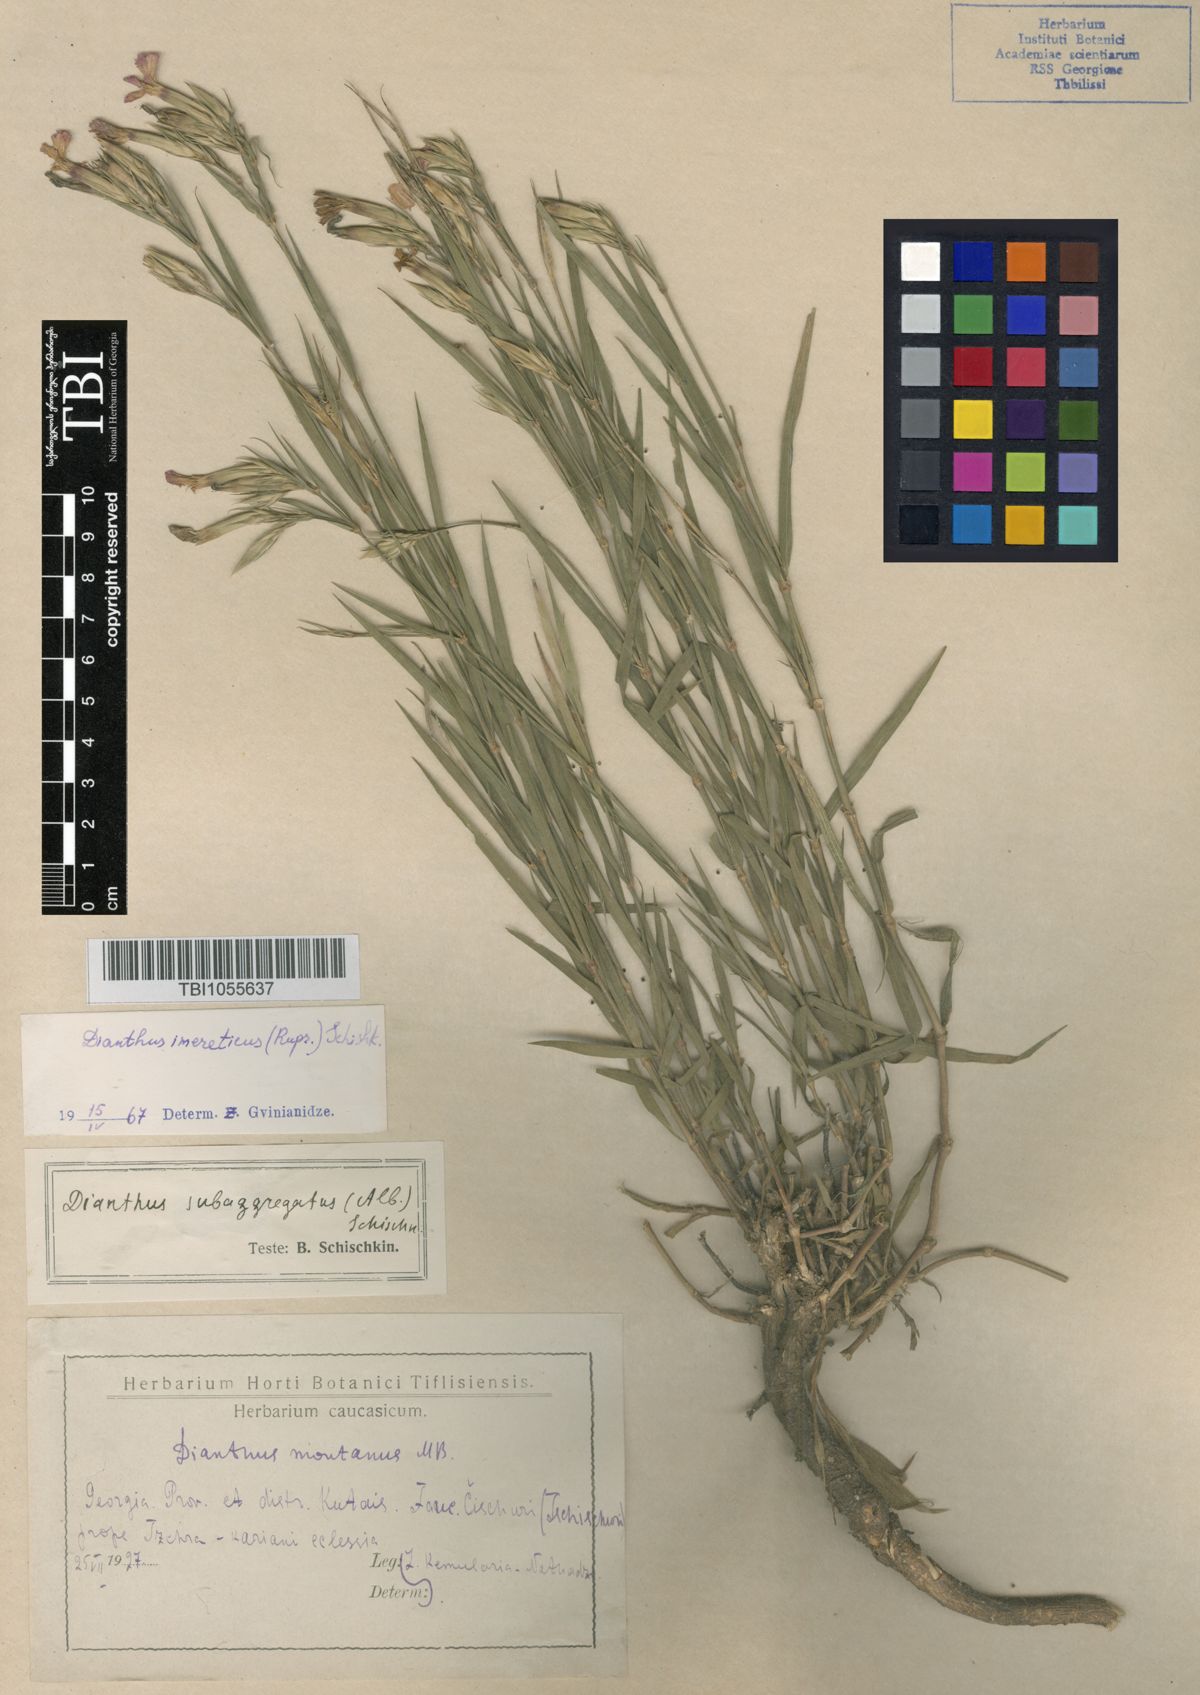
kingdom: Plantae
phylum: Tracheophyta
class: Magnoliopsida
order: Caryophyllales
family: Caryophyllaceae
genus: Dianthus
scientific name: Dianthus imereticus
